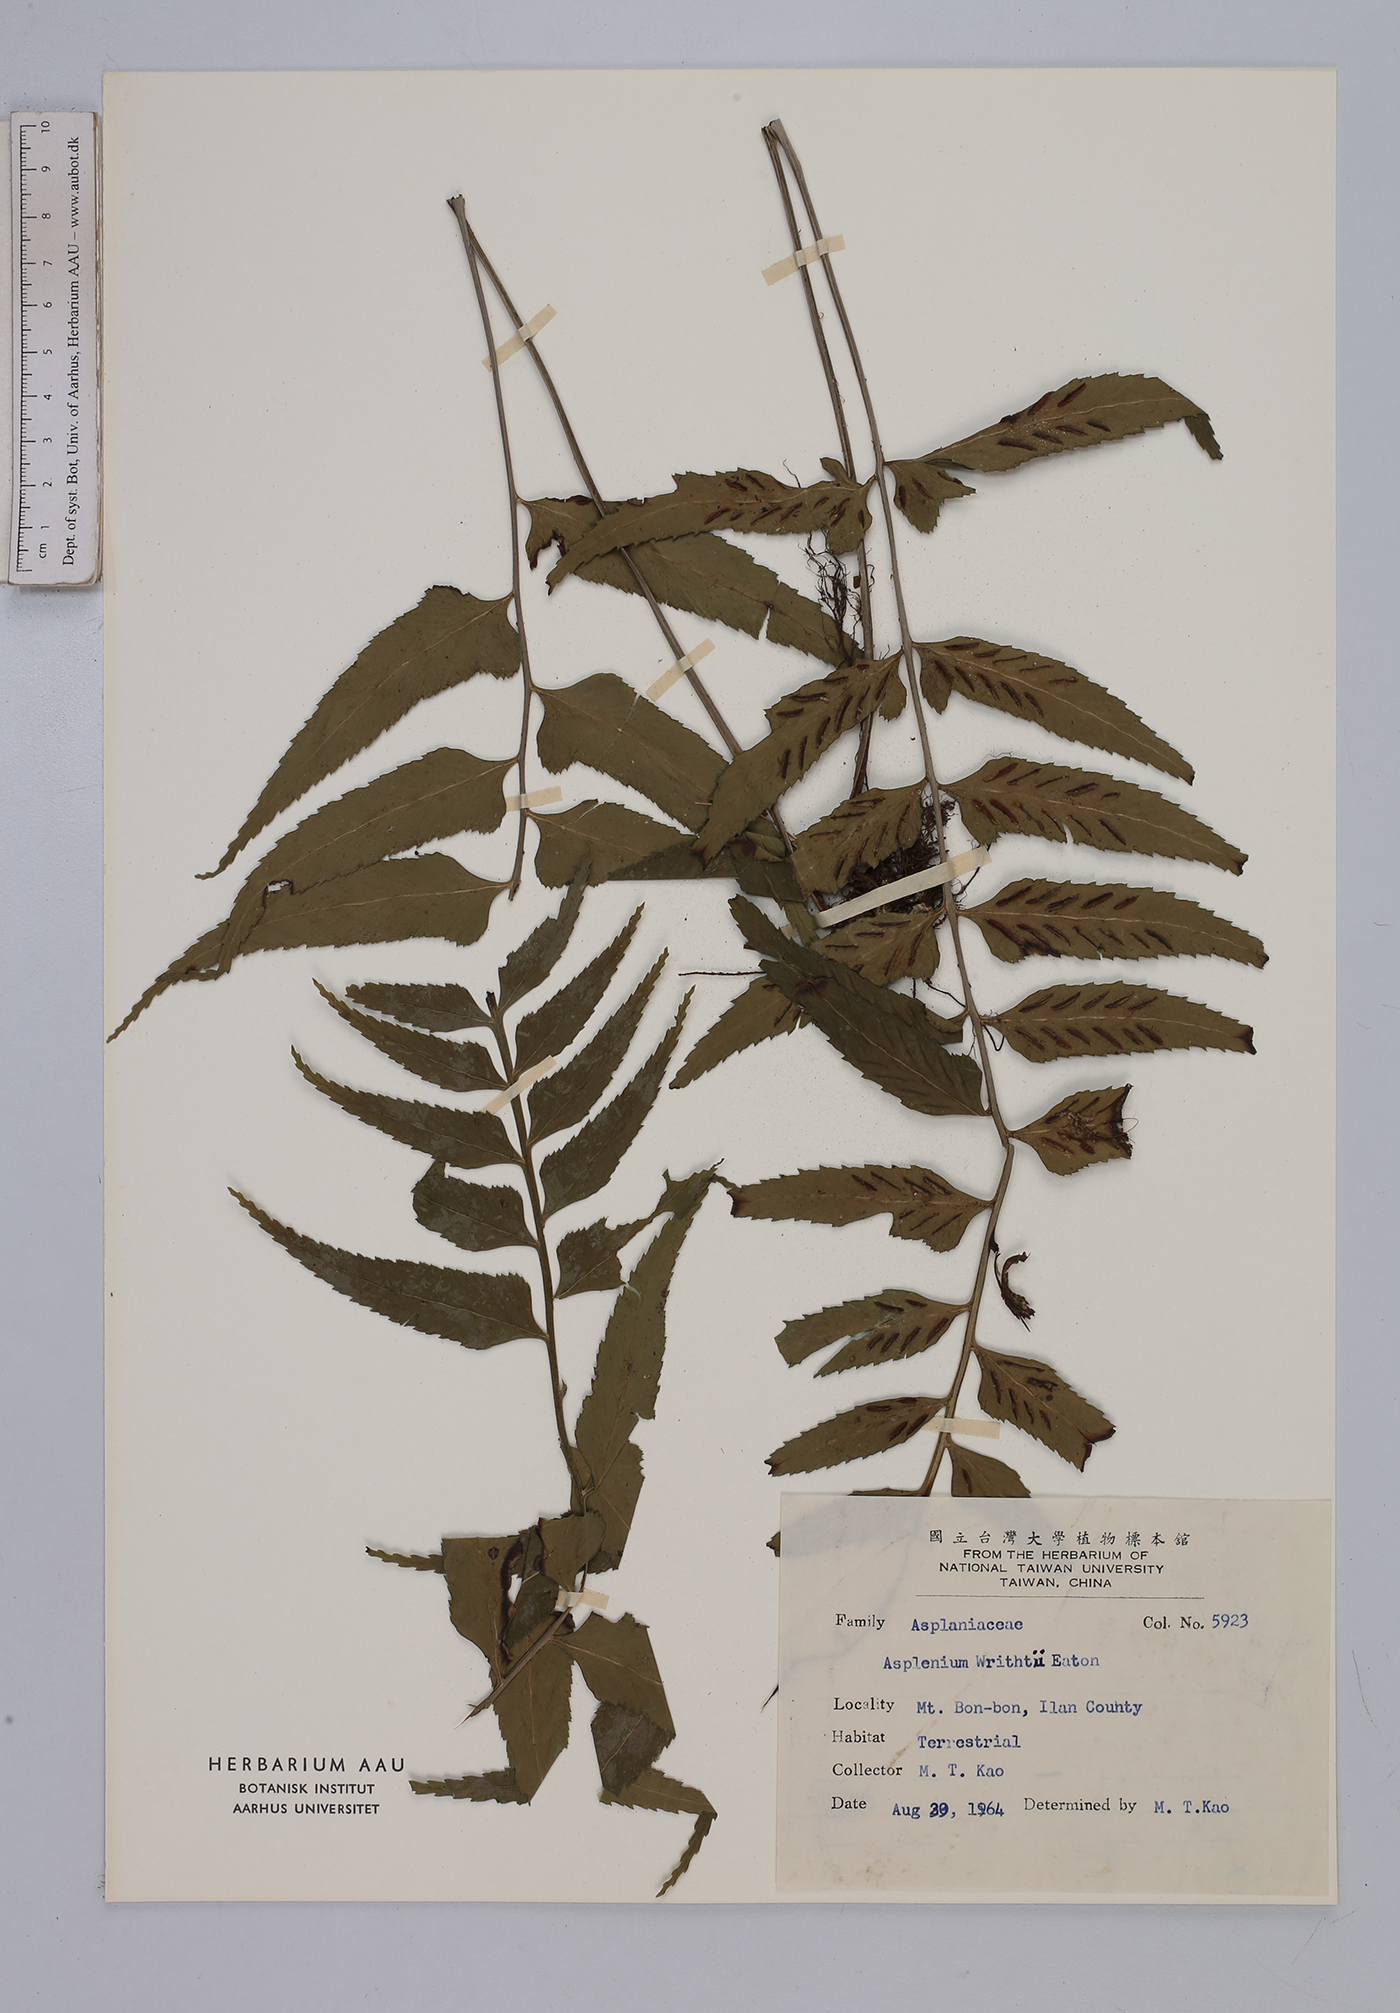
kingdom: Plantae
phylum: Tracheophyta
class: Polypodiopsida
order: Polypodiales
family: Aspleniaceae
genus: Asplenium
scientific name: Asplenium wrightii
